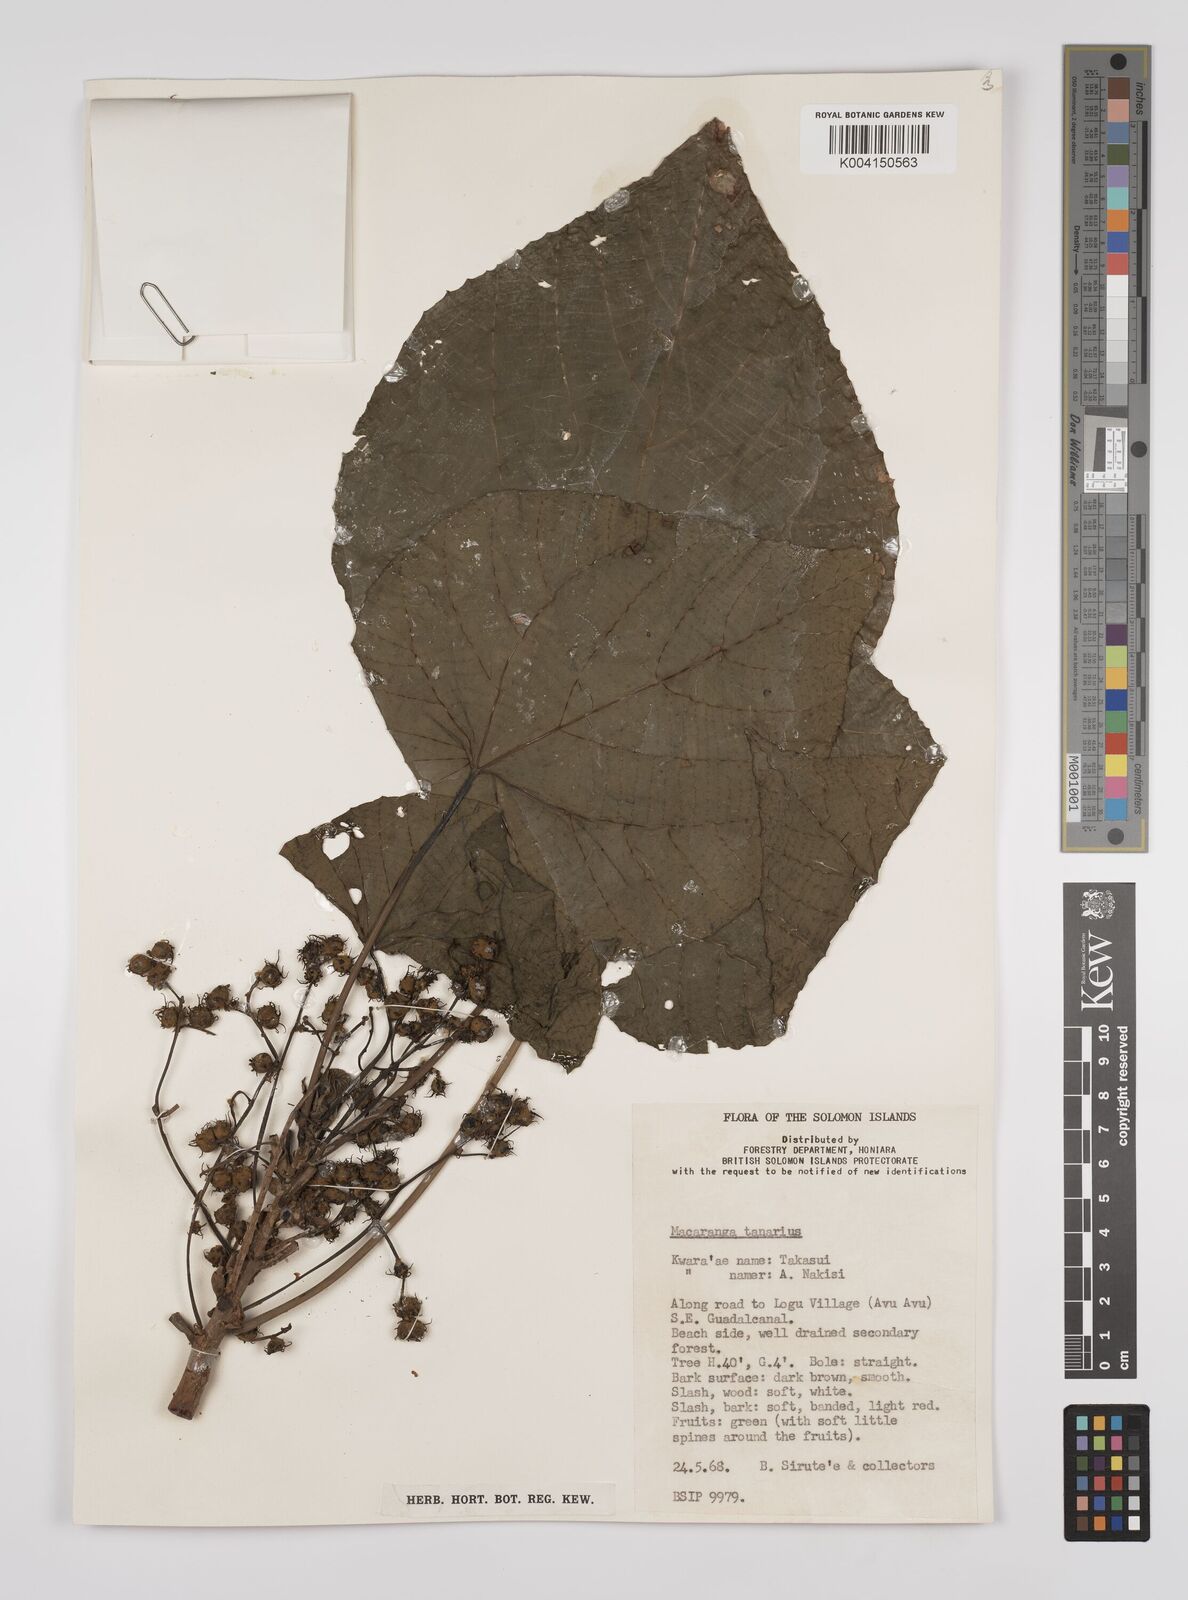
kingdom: Plantae
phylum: Tracheophyta
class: Magnoliopsida
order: Malpighiales
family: Euphorbiaceae
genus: Macaranga
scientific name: Macaranga tanarius
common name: Parasol leaf tree
